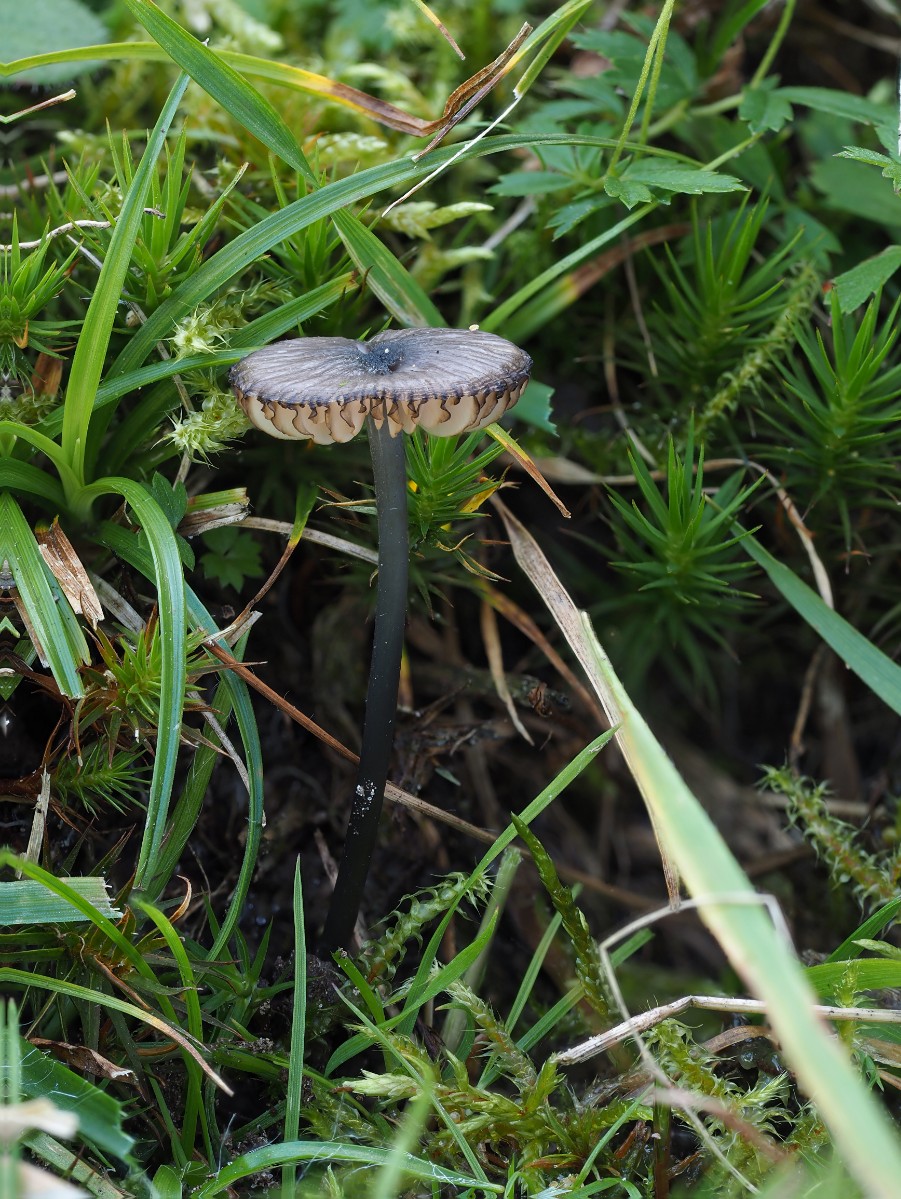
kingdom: Fungi
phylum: Basidiomycota
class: Agaricomycetes
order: Agaricales
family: Entolomataceae
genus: Entoloma
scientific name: Entoloma
